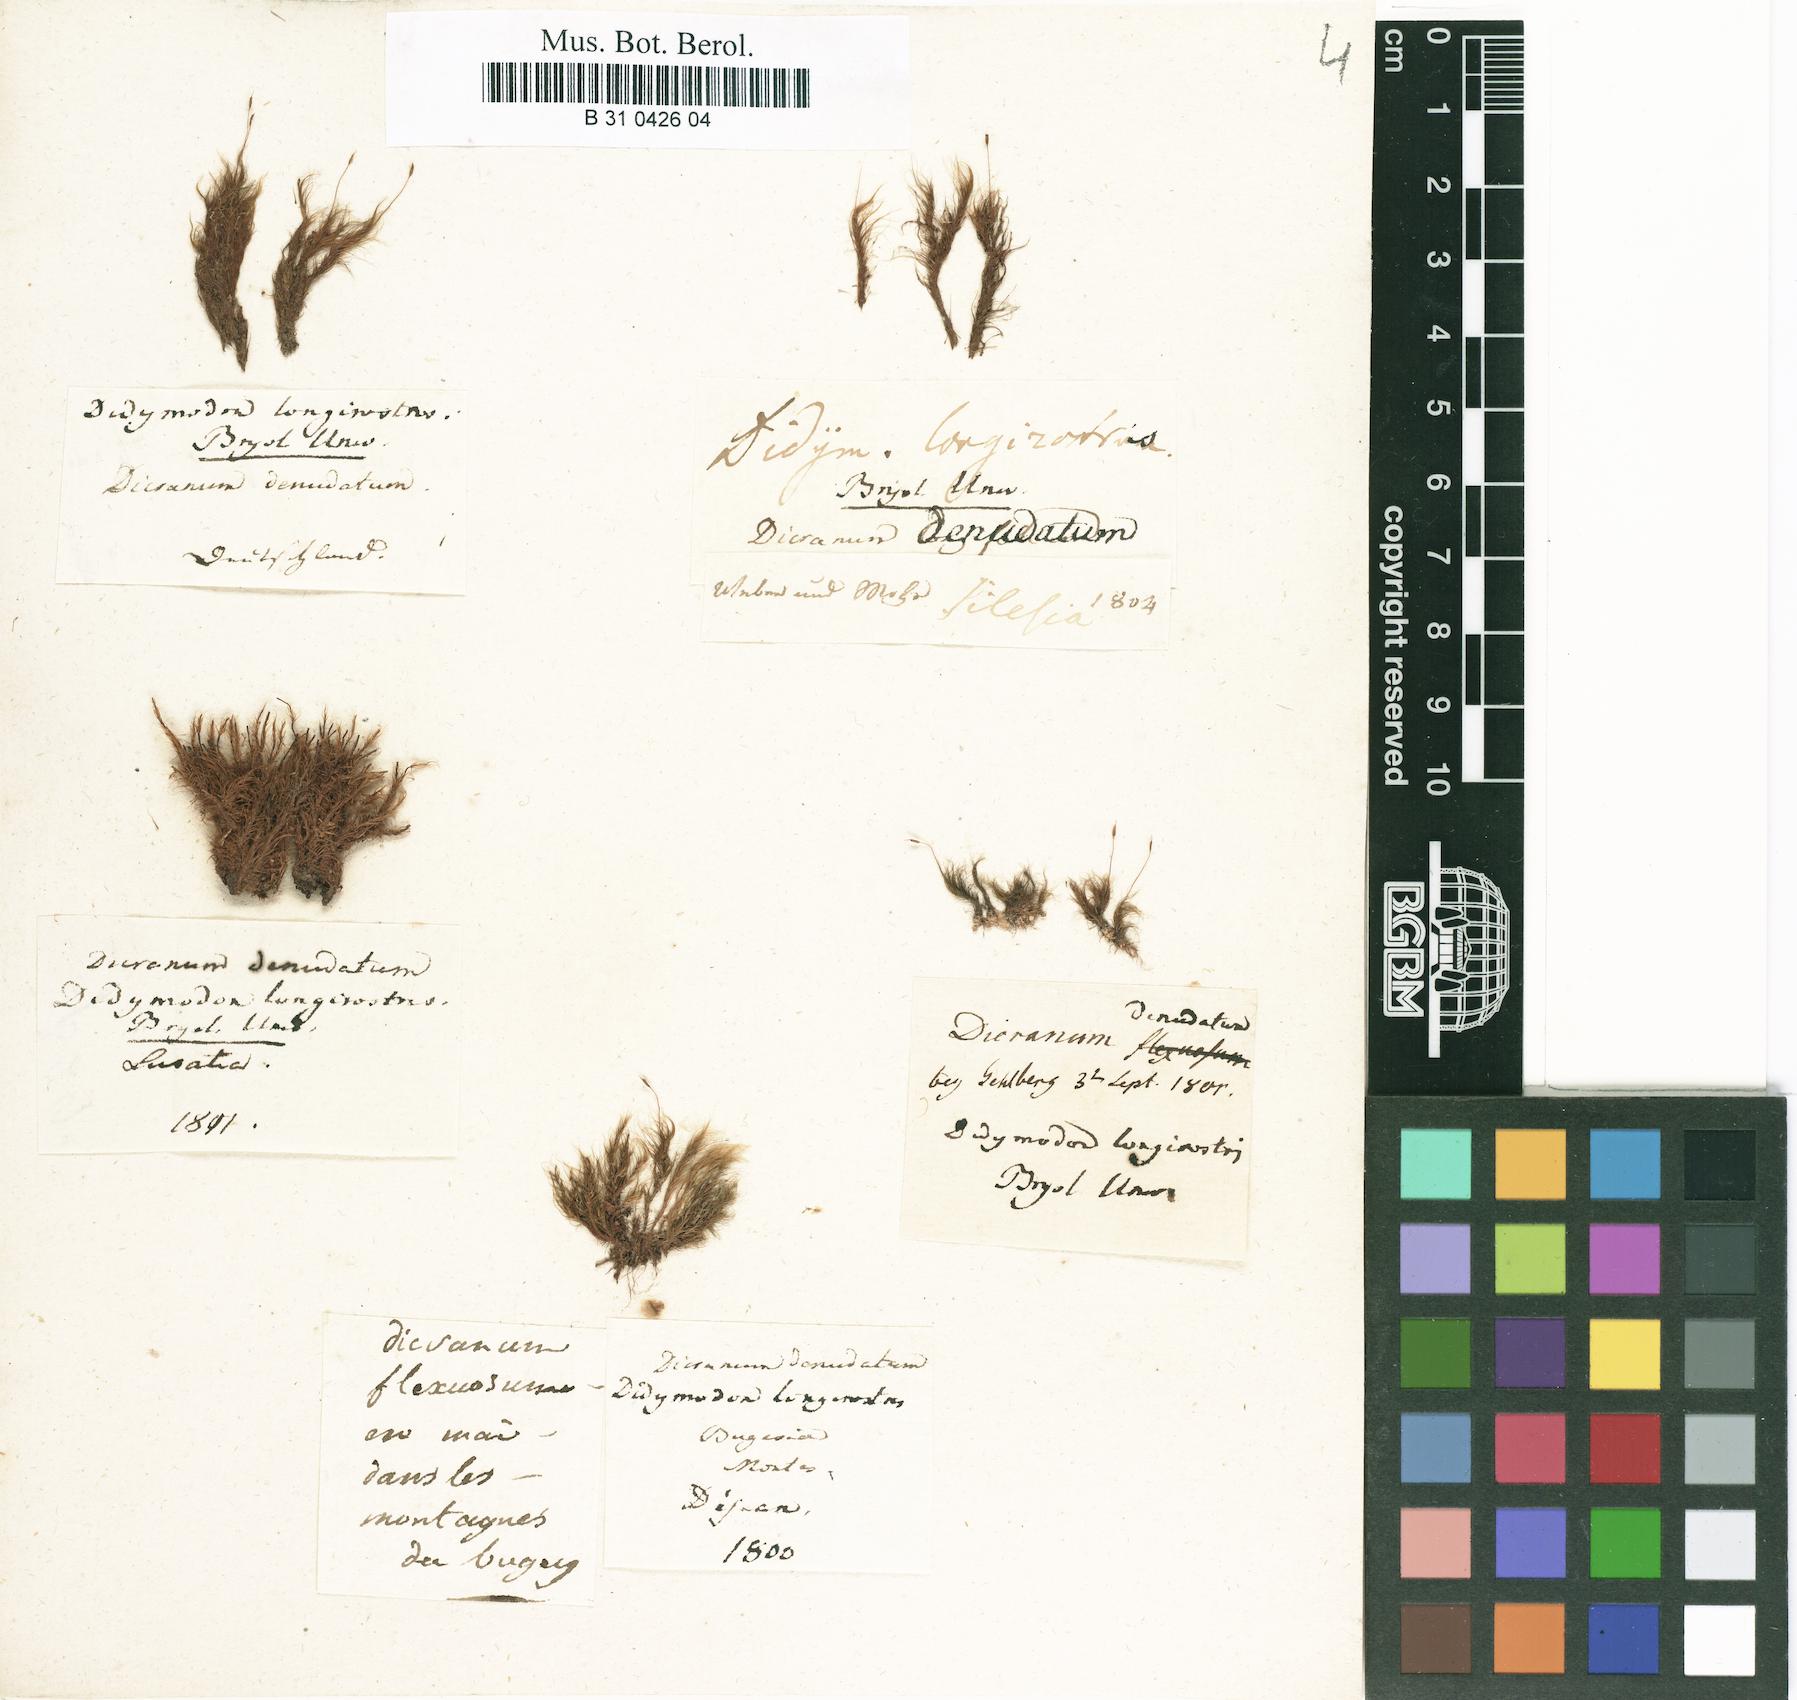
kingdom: Plantae
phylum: Bryophyta
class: Bryopsida
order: Dicranales
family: Leucobryaceae
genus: Dicranodontium
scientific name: Dicranodontium denudatum
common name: Beaked bow moss
